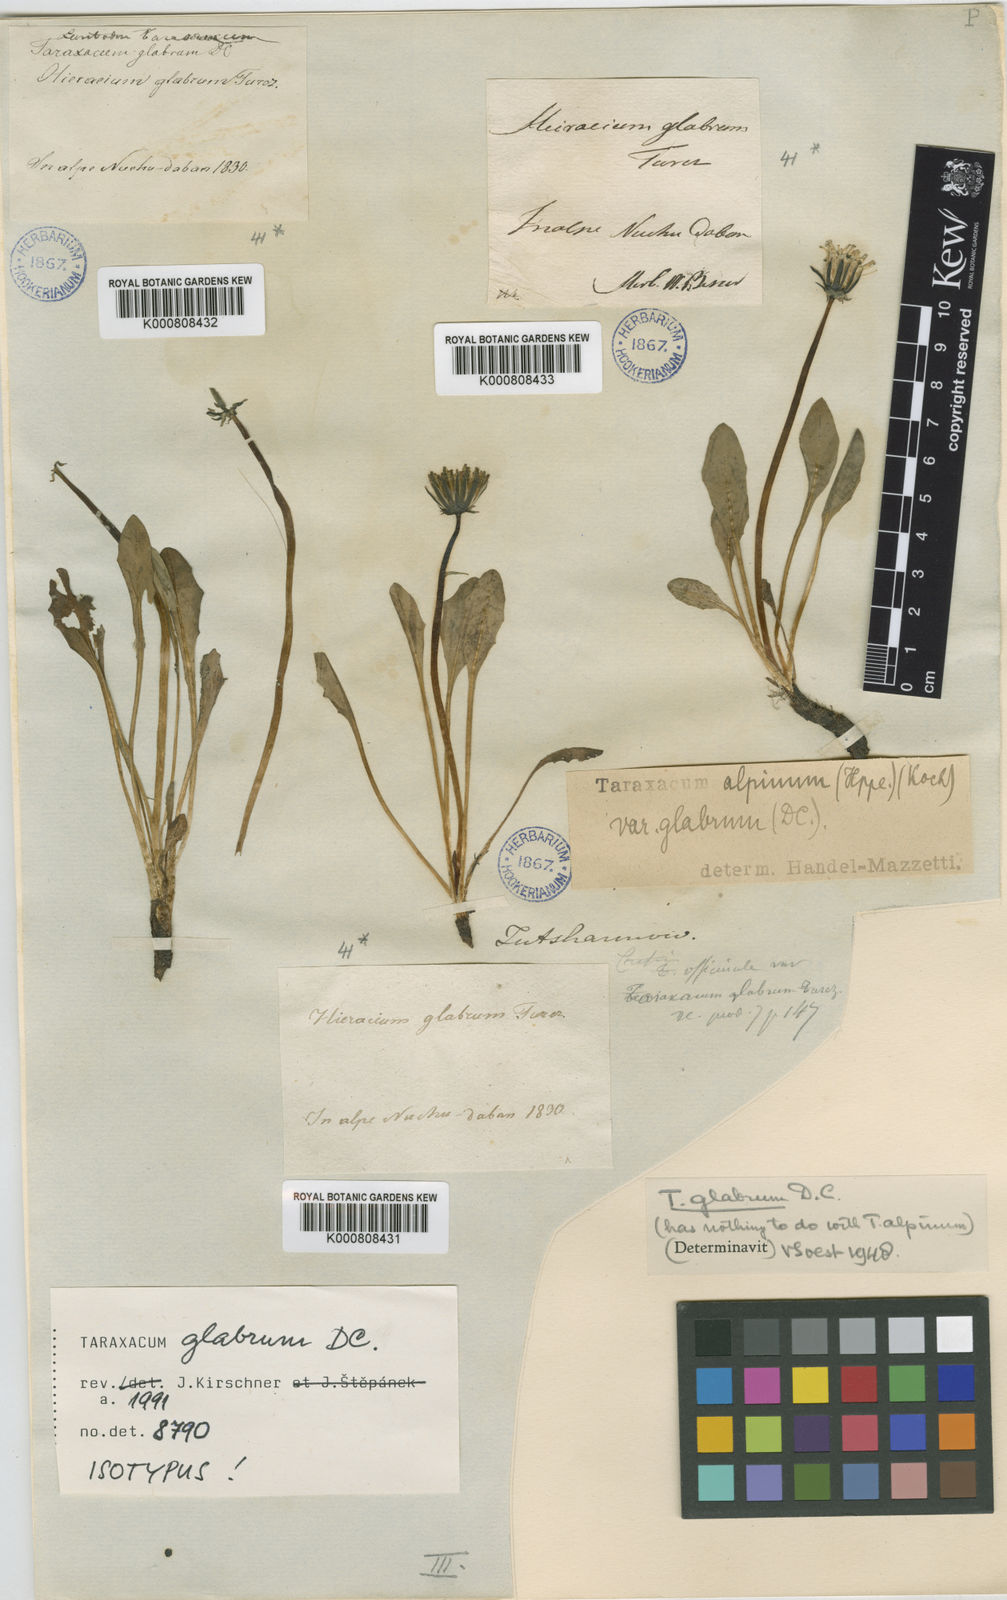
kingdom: Plantae
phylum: Tracheophyta
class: Magnoliopsida
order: Asterales
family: Asteraceae
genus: Taraxacum
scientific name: Taraxacum glabrum
